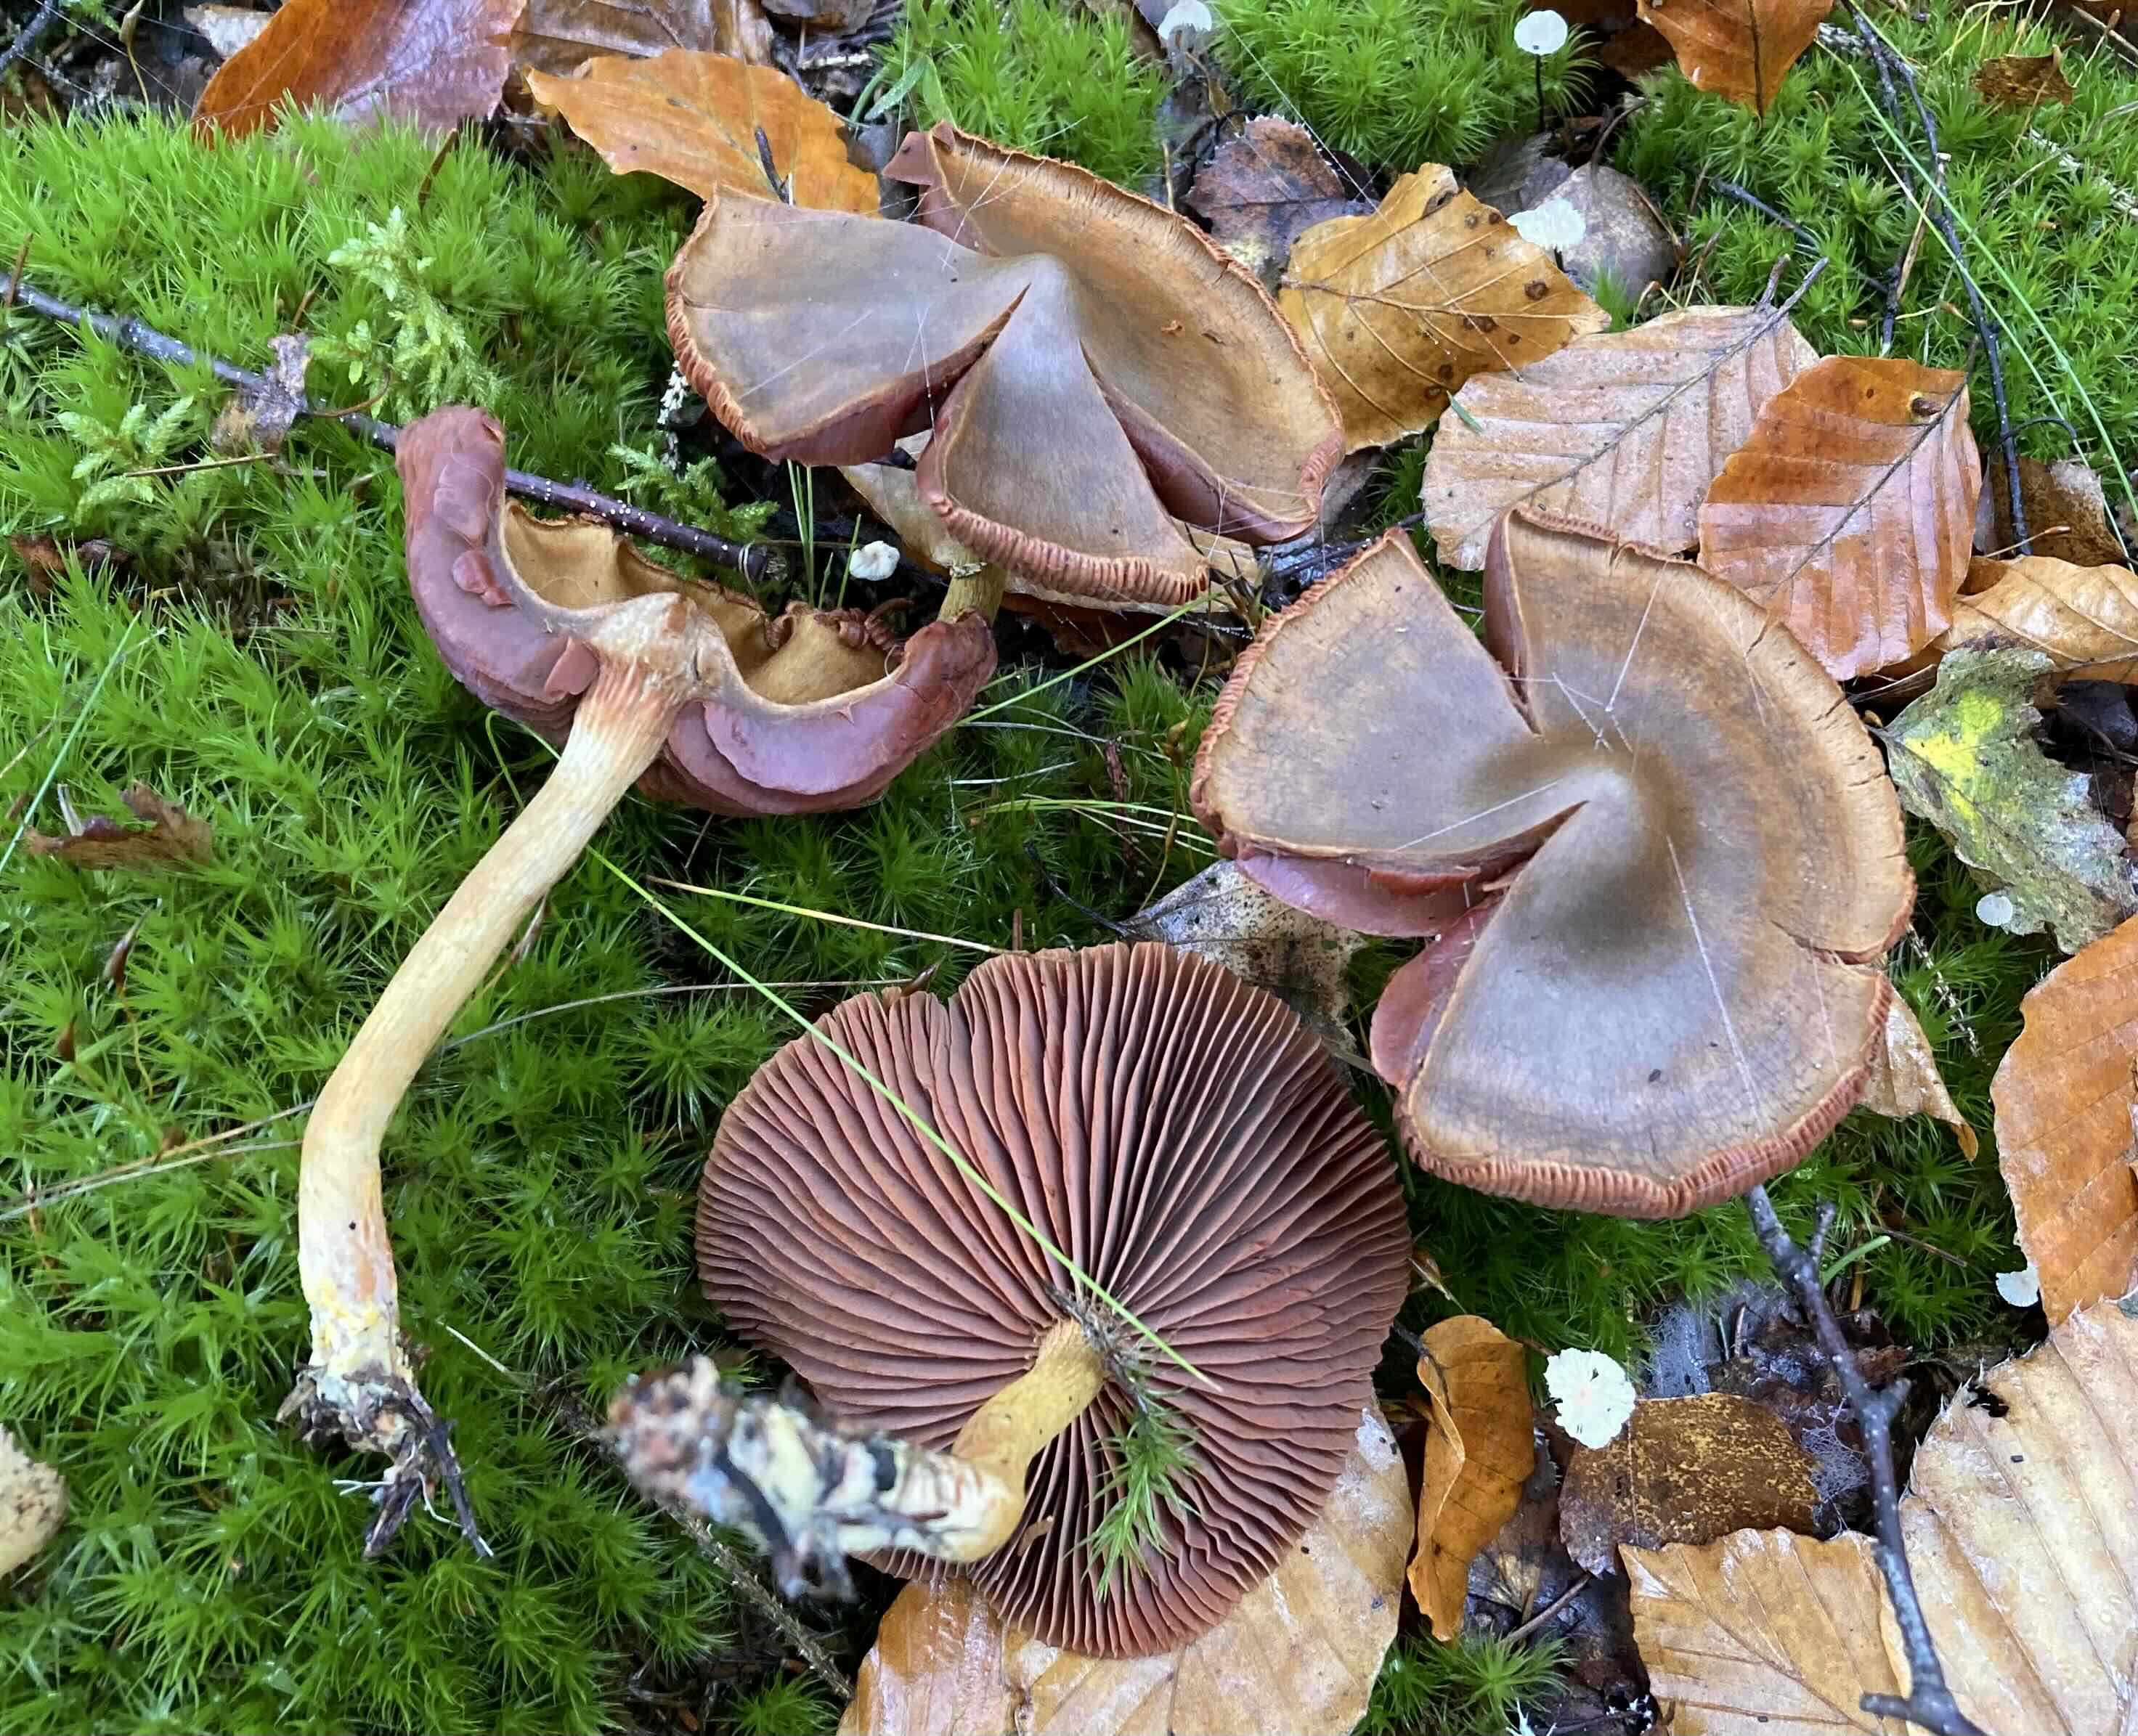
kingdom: Fungi
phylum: Basidiomycota
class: Agaricomycetes
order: Agaricales
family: Cortinariaceae
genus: Cortinarius
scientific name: Cortinarius
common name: cinnoberbladet slørhat
